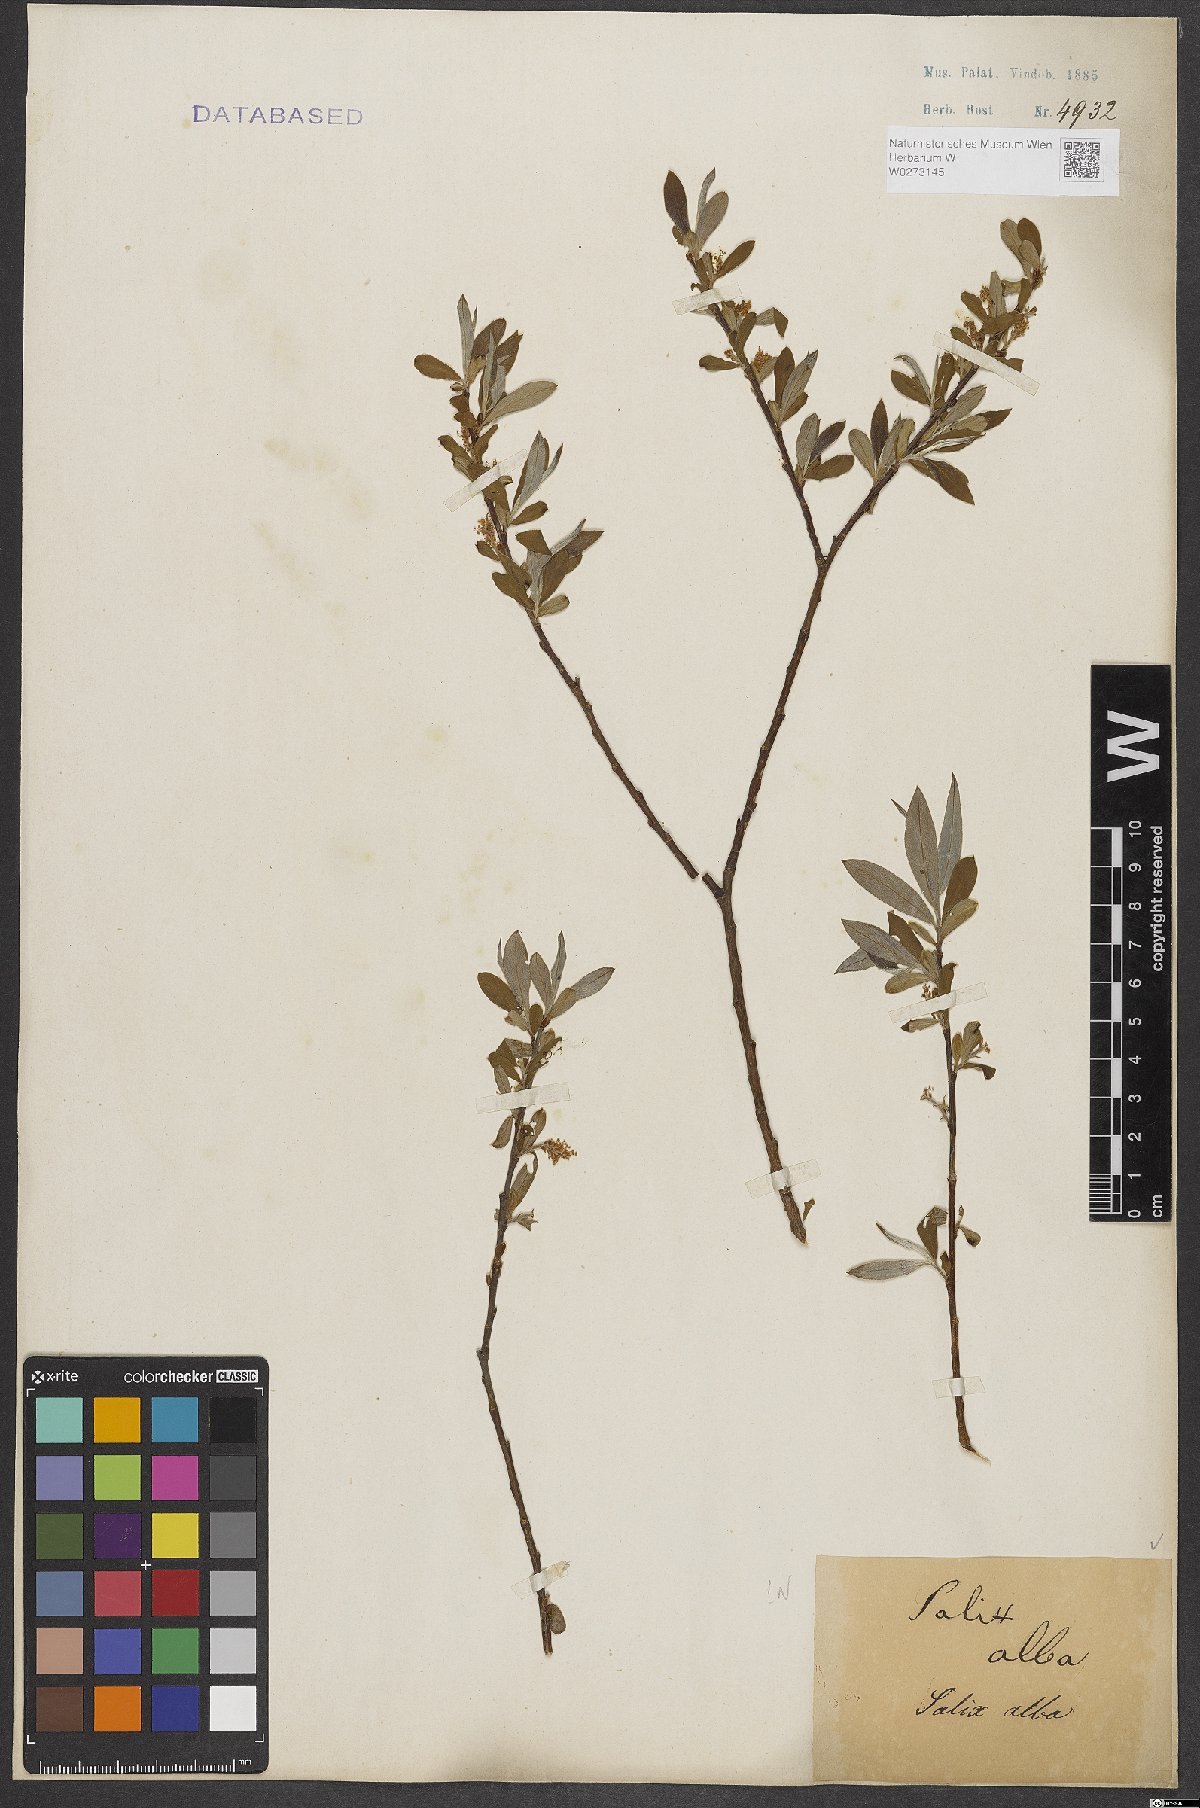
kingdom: Plantae
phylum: Tracheophyta
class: Magnoliopsida
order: Malpighiales
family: Salicaceae
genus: Salix
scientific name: Salix alba
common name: White willow
